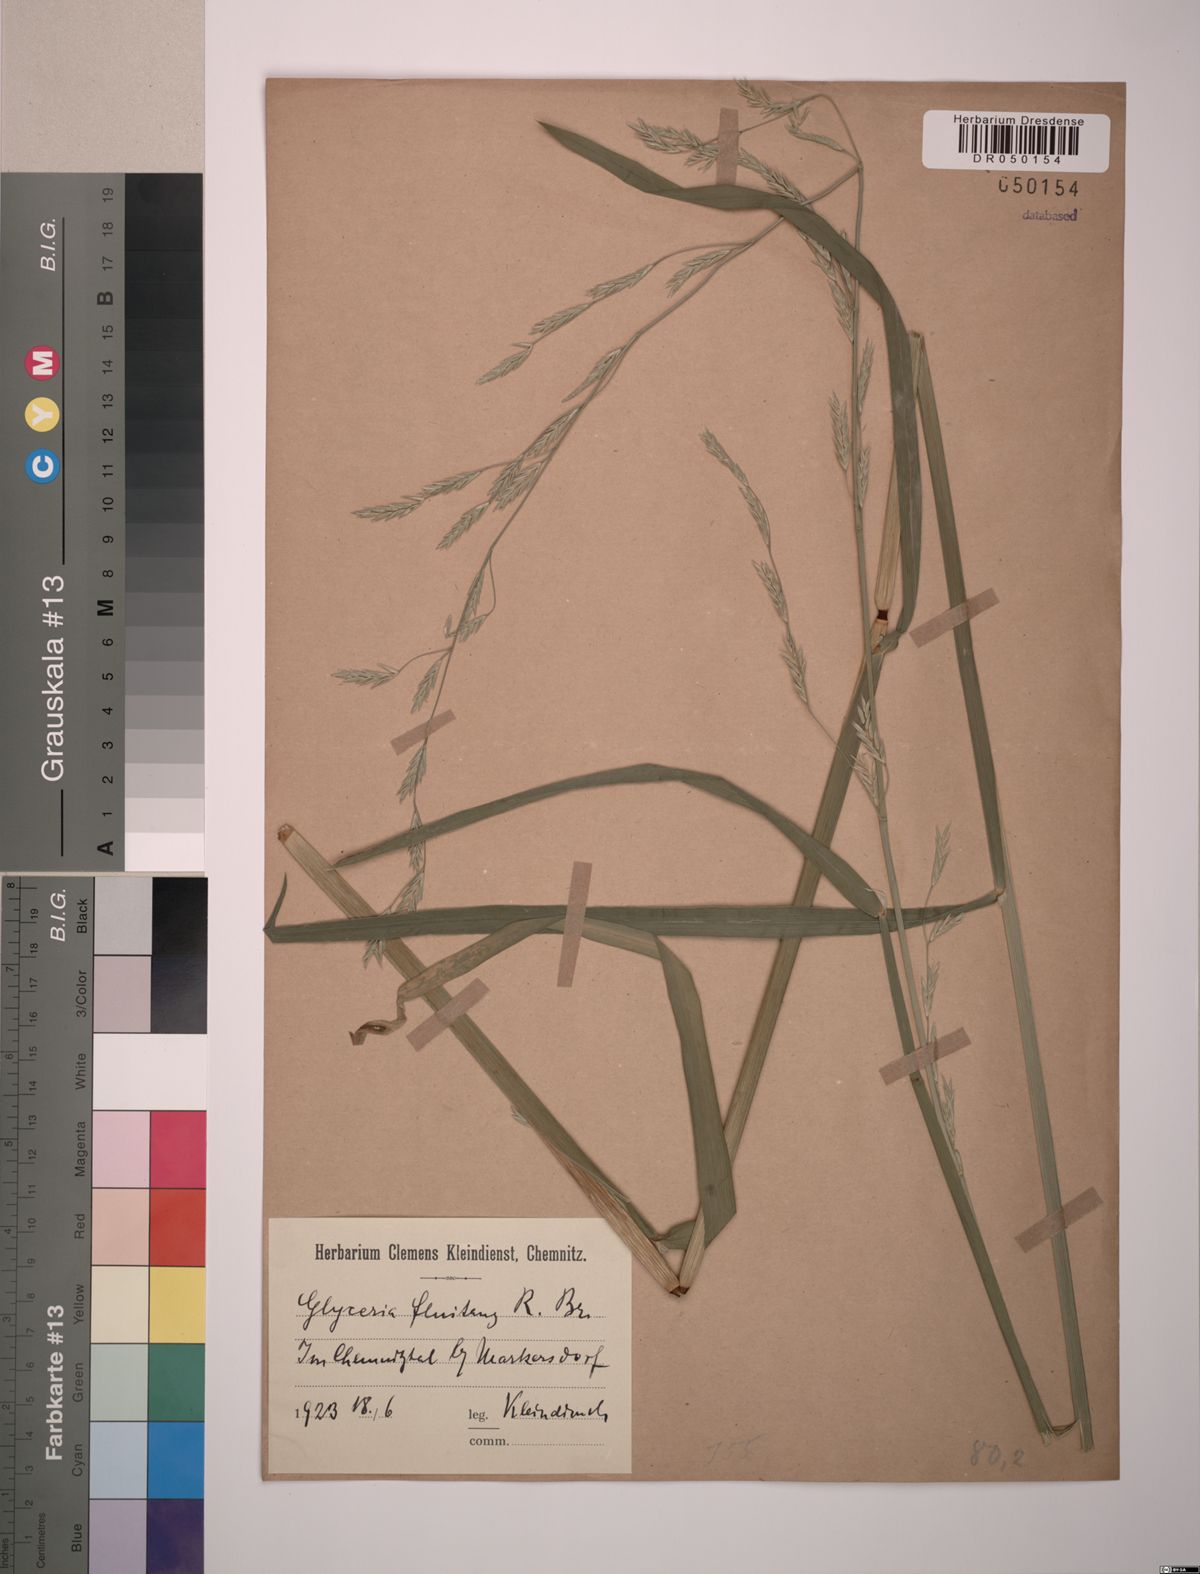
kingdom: Plantae
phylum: Tracheophyta
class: Liliopsida
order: Poales
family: Poaceae
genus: Glyceria
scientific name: Glyceria fluitans
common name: Floating sweet-grass
